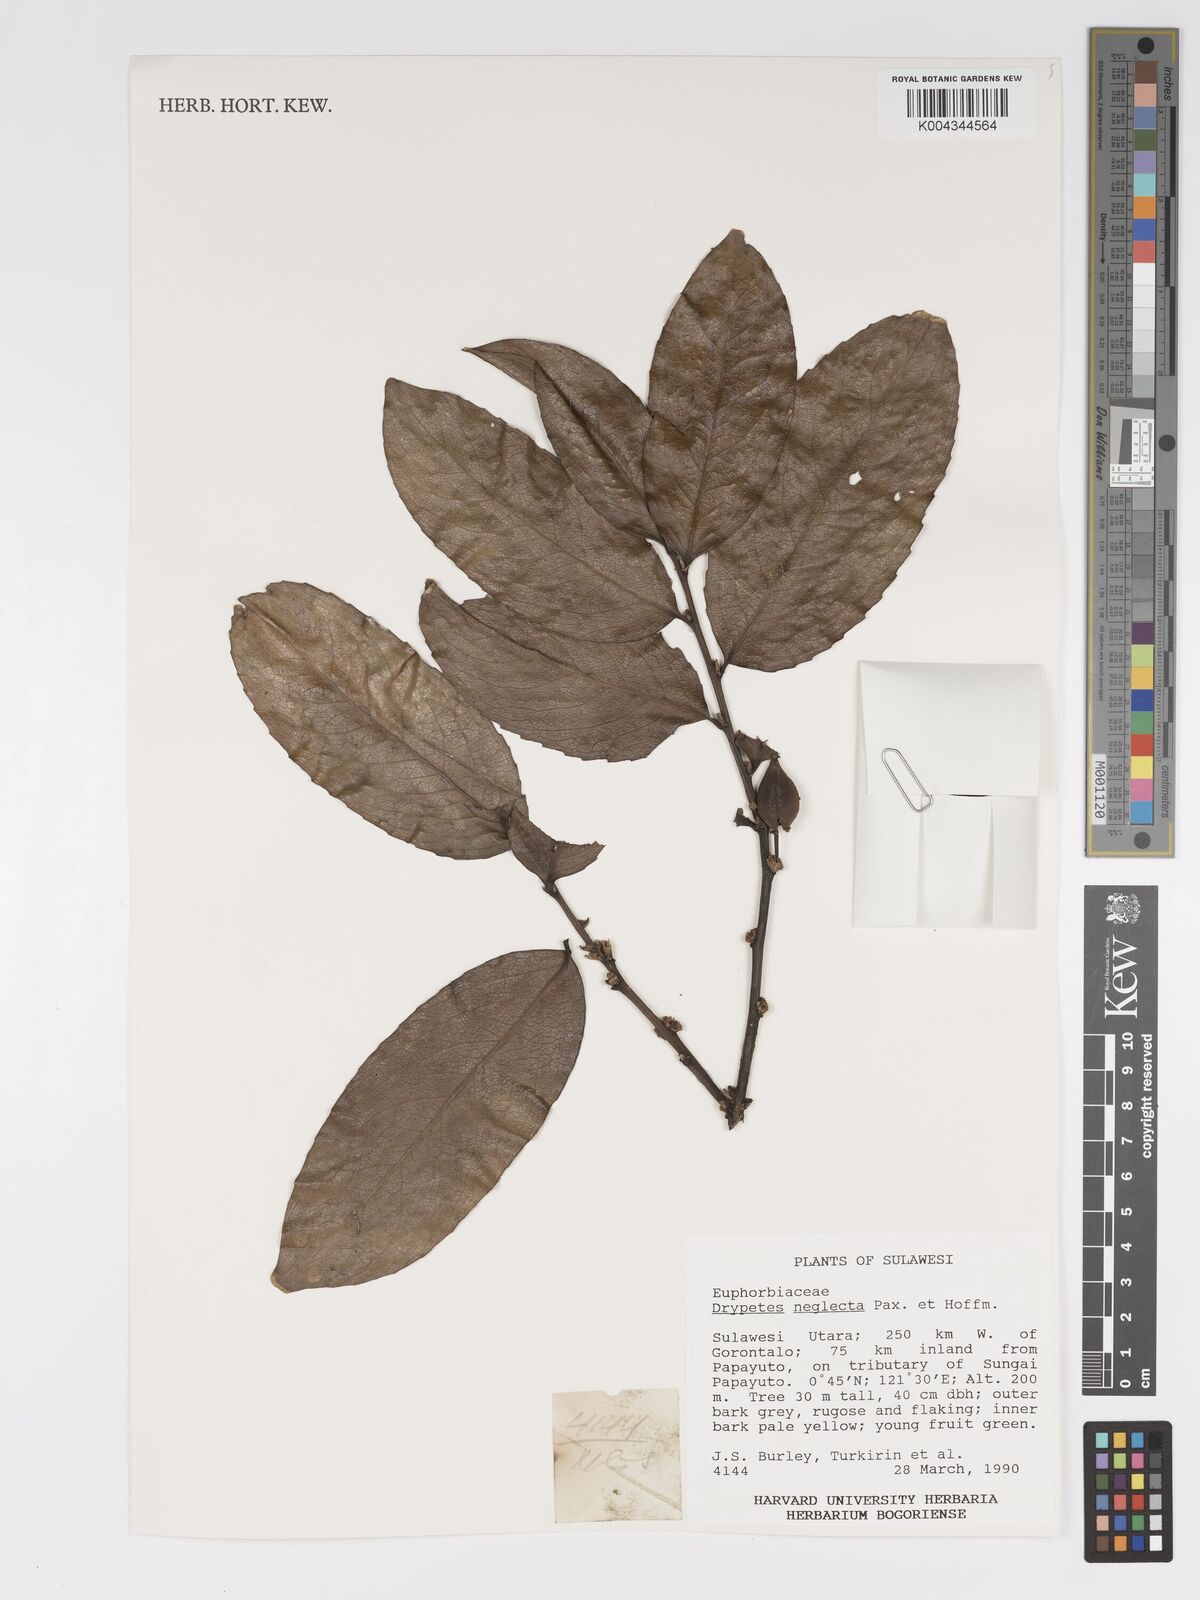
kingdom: Plantae
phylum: Tracheophyta
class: Magnoliopsida
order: Malpighiales
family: Putranjivaceae
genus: Drypetes
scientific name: Drypetes neglecta
